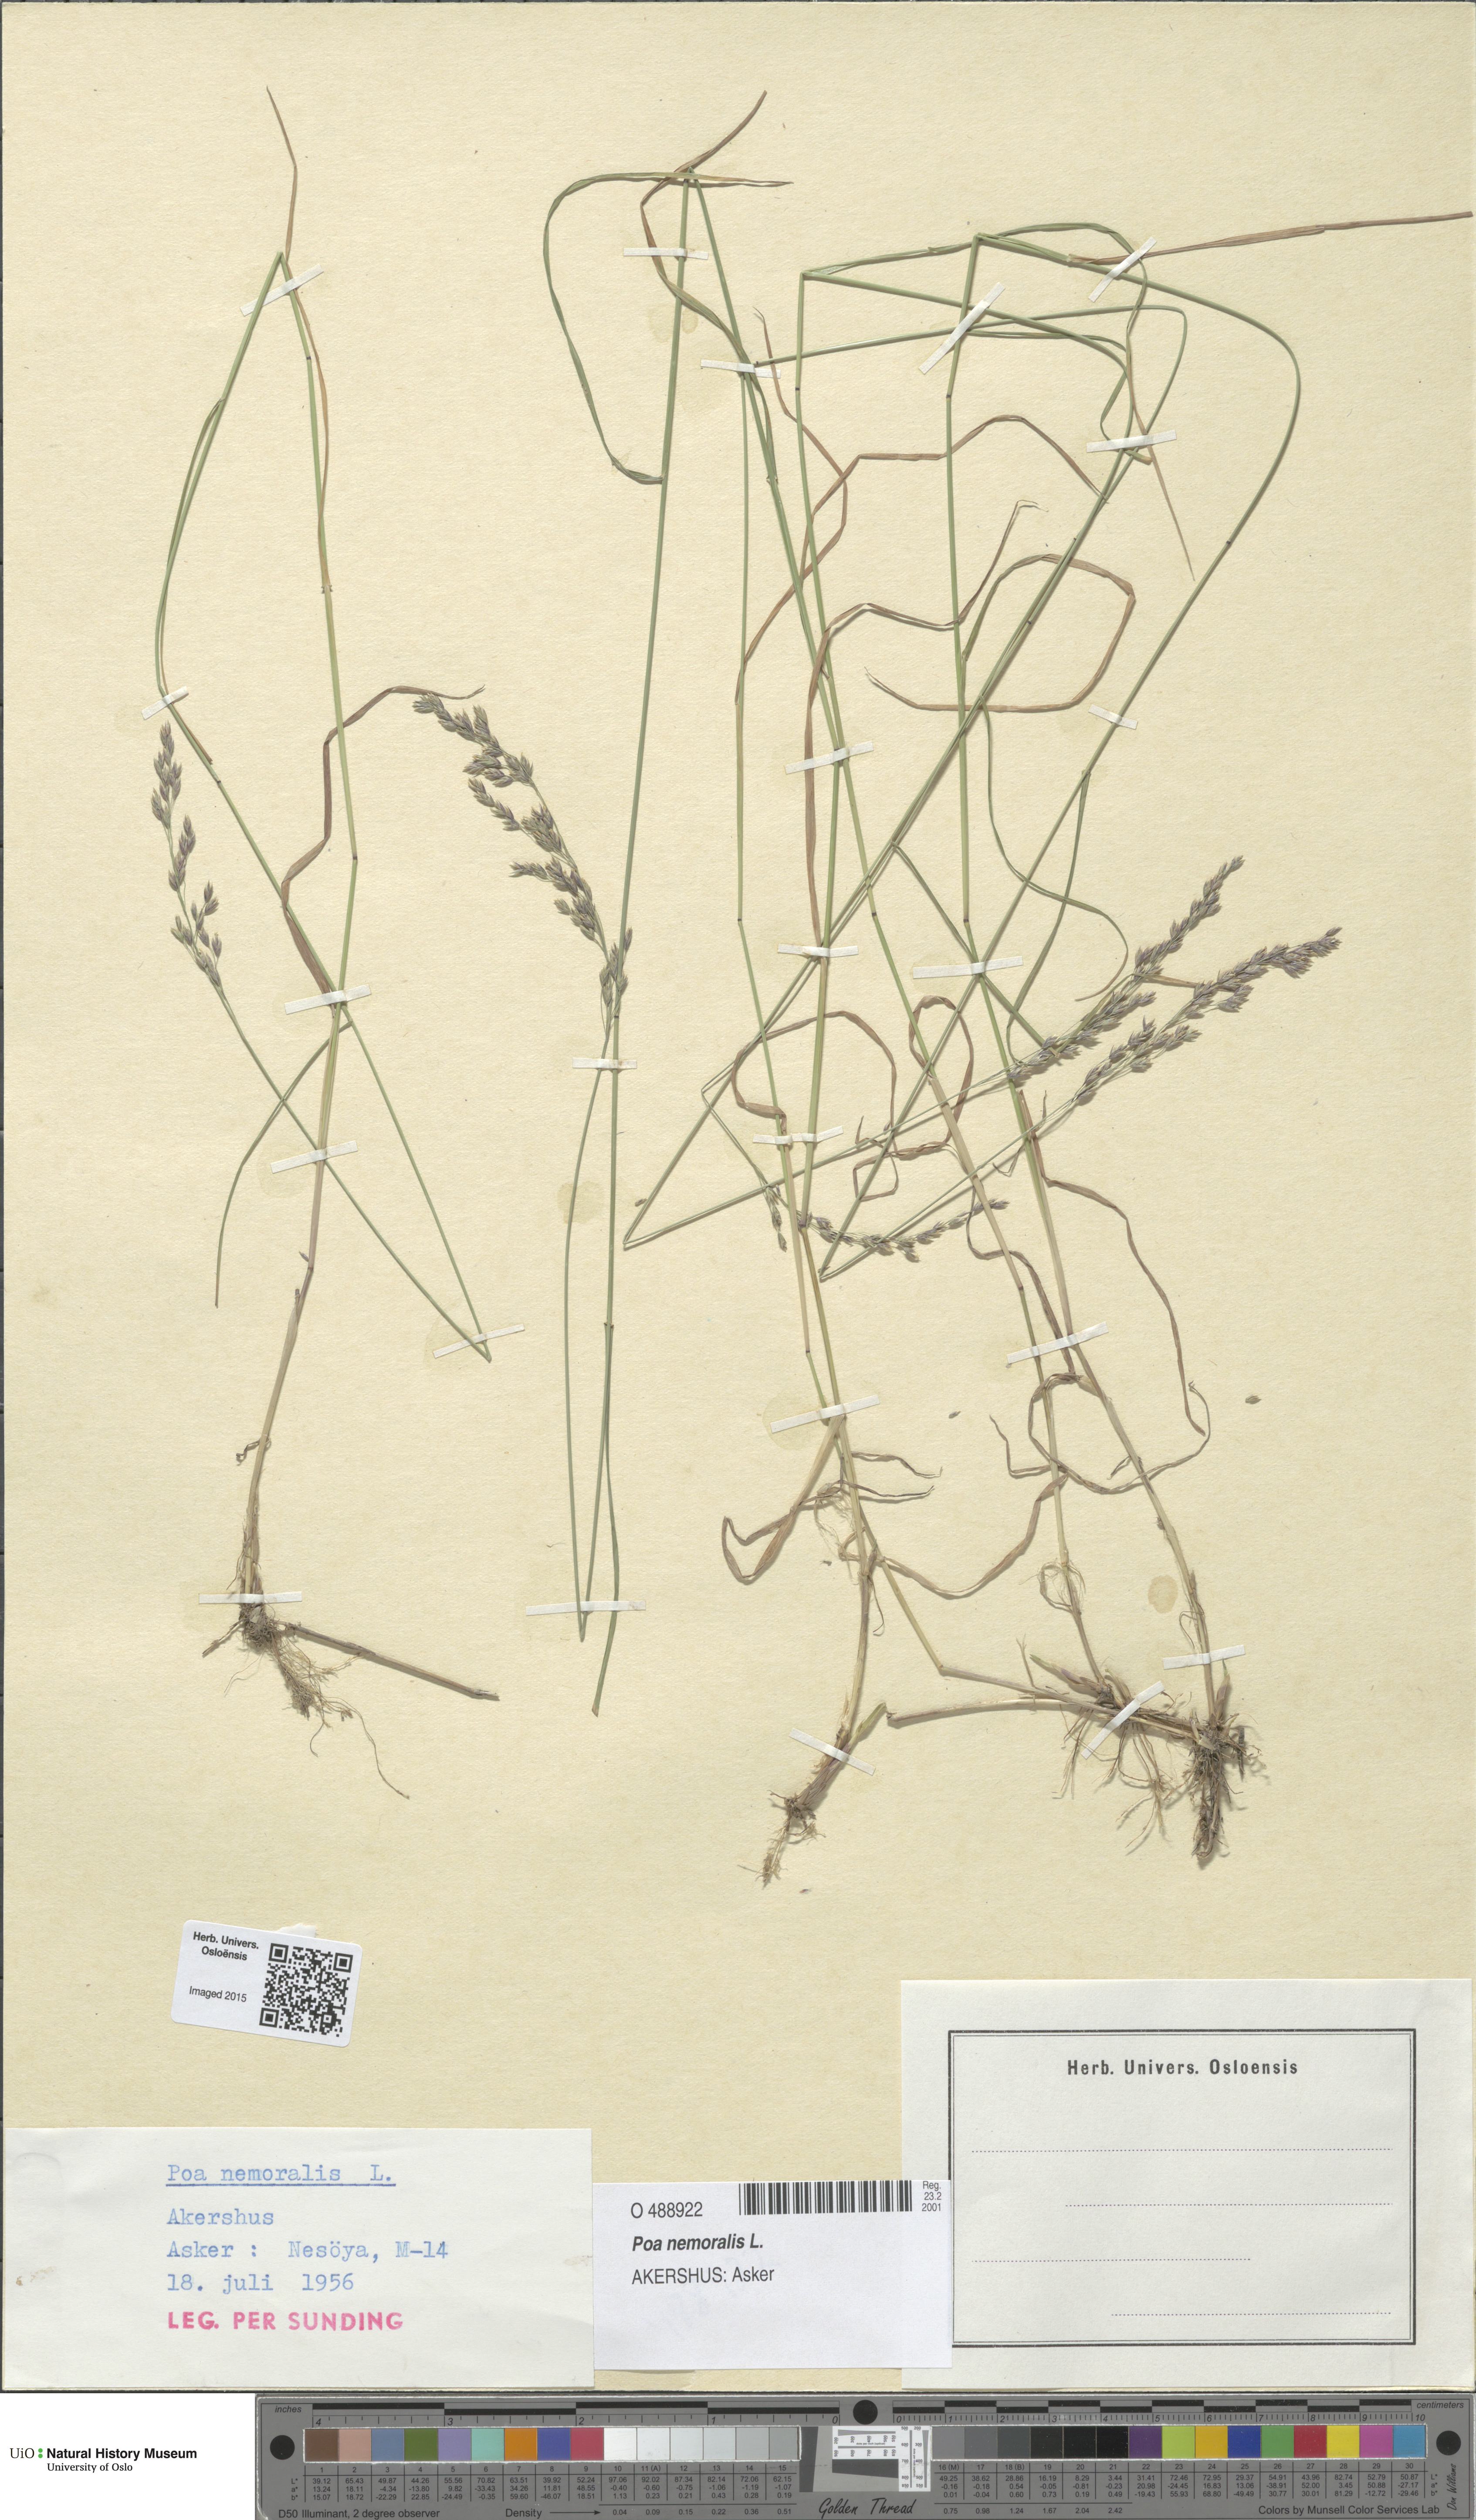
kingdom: Plantae
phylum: Tracheophyta
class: Liliopsida
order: Poales
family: Poaceae
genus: Poa
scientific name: Poa nemoralis
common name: Wood bluegrass
